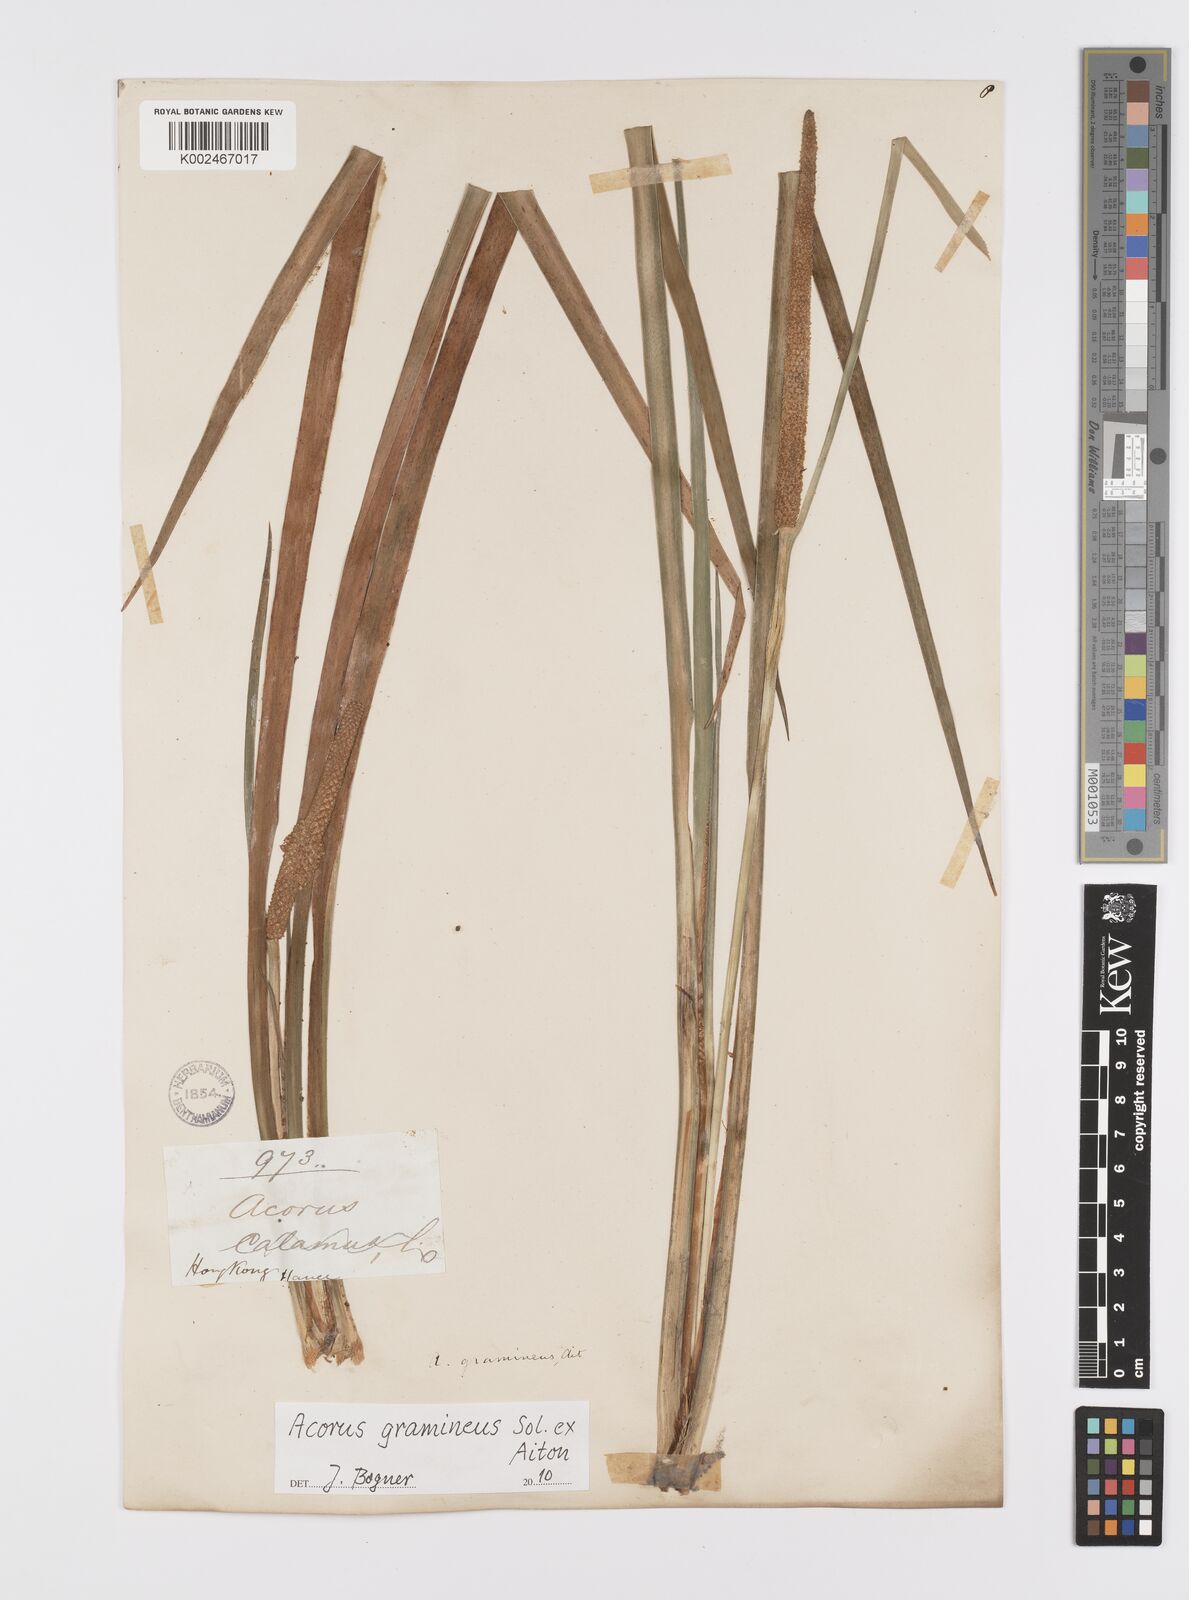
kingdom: Plantae
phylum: Tracheophyta
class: Liliopsida
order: Acorales
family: Acoraceae
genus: Acorus
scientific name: Acorus gramineus
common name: Slender sweet-flag
